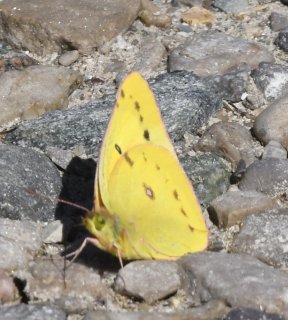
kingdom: Animalia
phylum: Arthropoda
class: Insecta
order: Lepidoptera
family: Pieridae
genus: Colias
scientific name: Colias eurytheme
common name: Orange Sulphur
